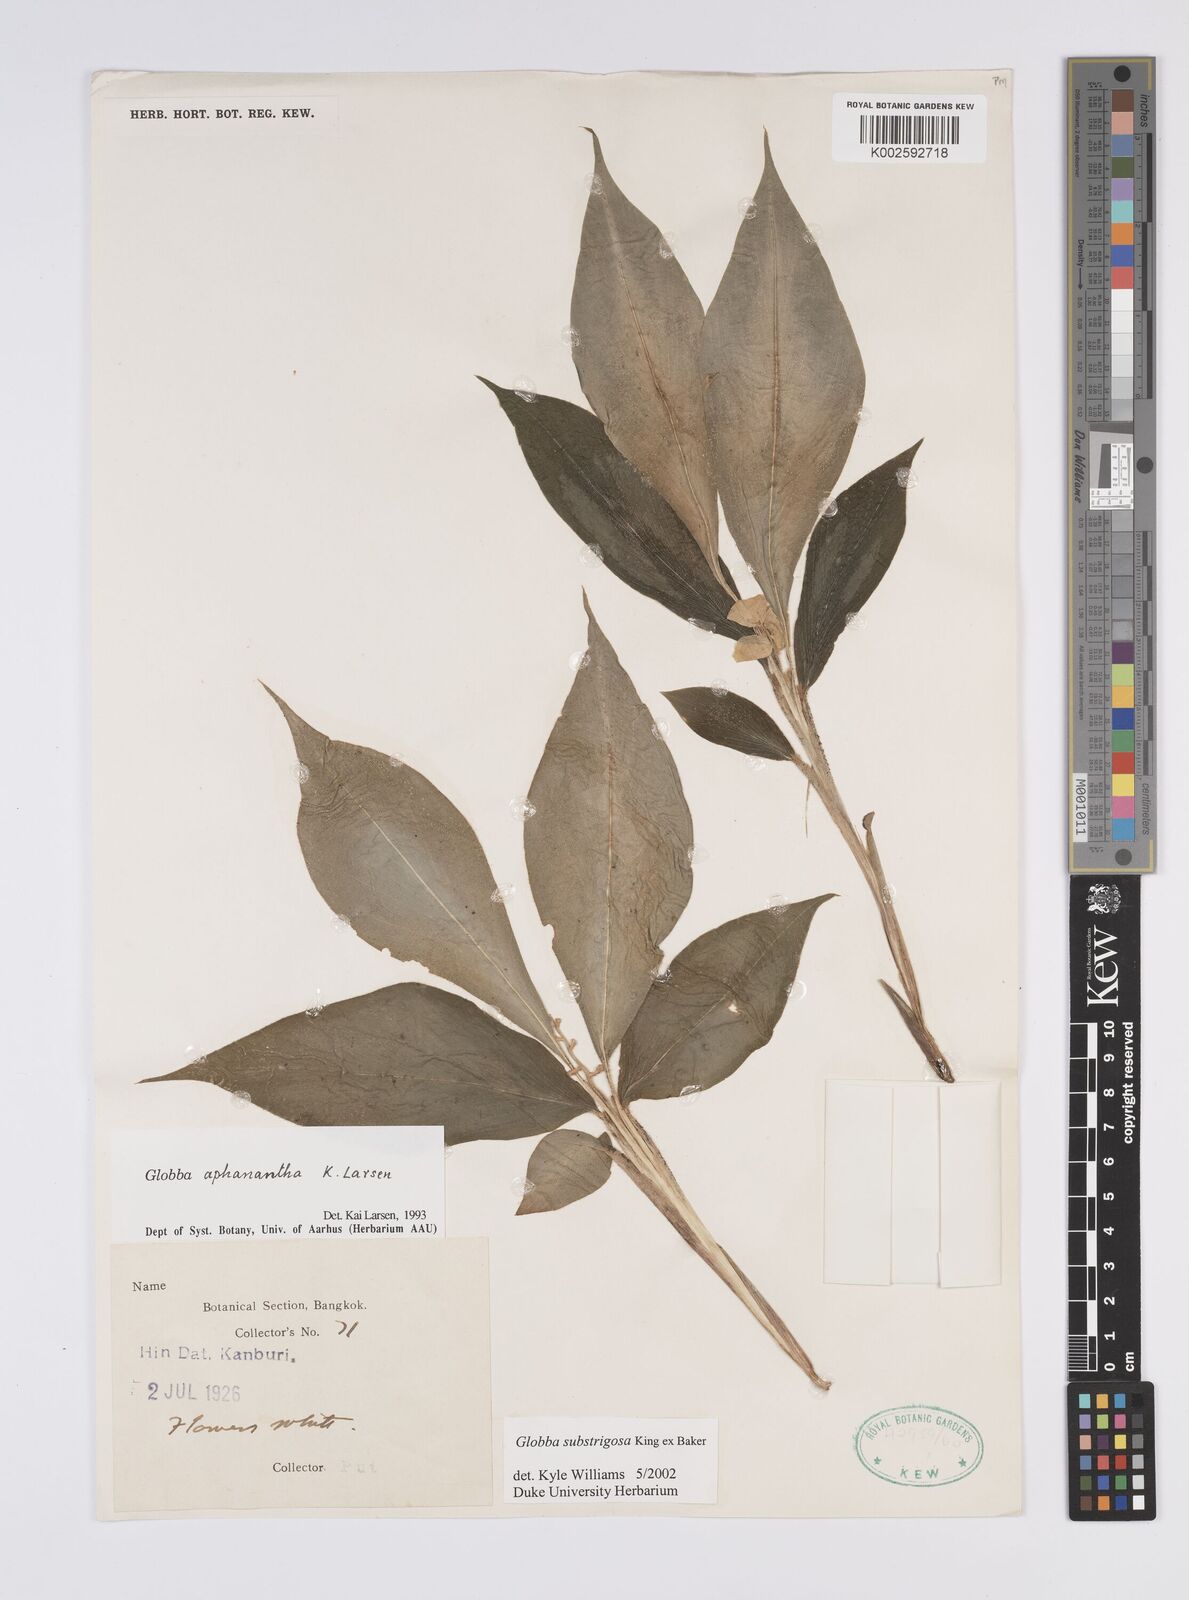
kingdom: Plantae
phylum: Tracheophyta
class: Liliopsida
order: Zingiberales
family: Zingiberaceae
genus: Globba
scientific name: Globba substrigosa
